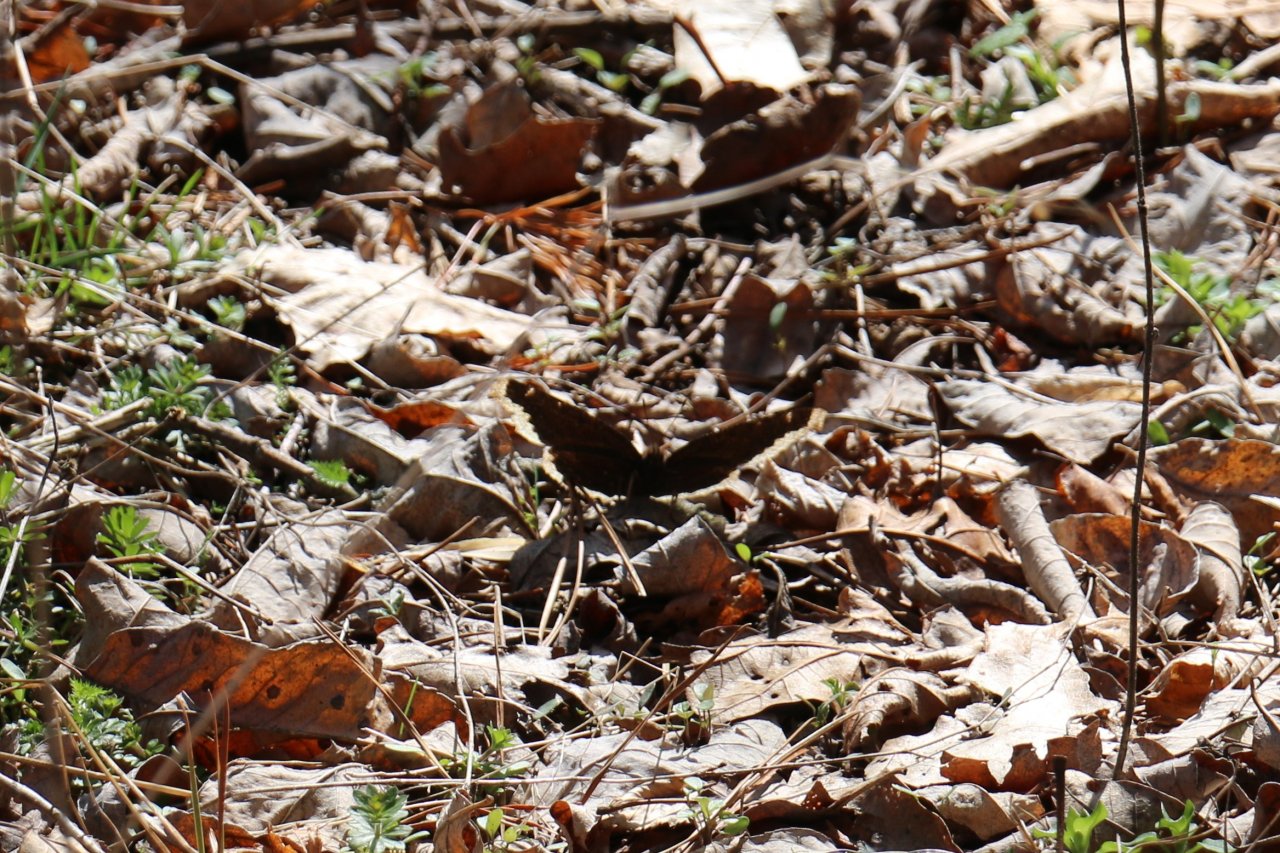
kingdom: Animalia
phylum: Arthropoda
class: Insecta
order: Lepidoptera
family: Nymphalidae
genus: Nymphalis
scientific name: Nymphalis antiopa
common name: Mourning Cloak
